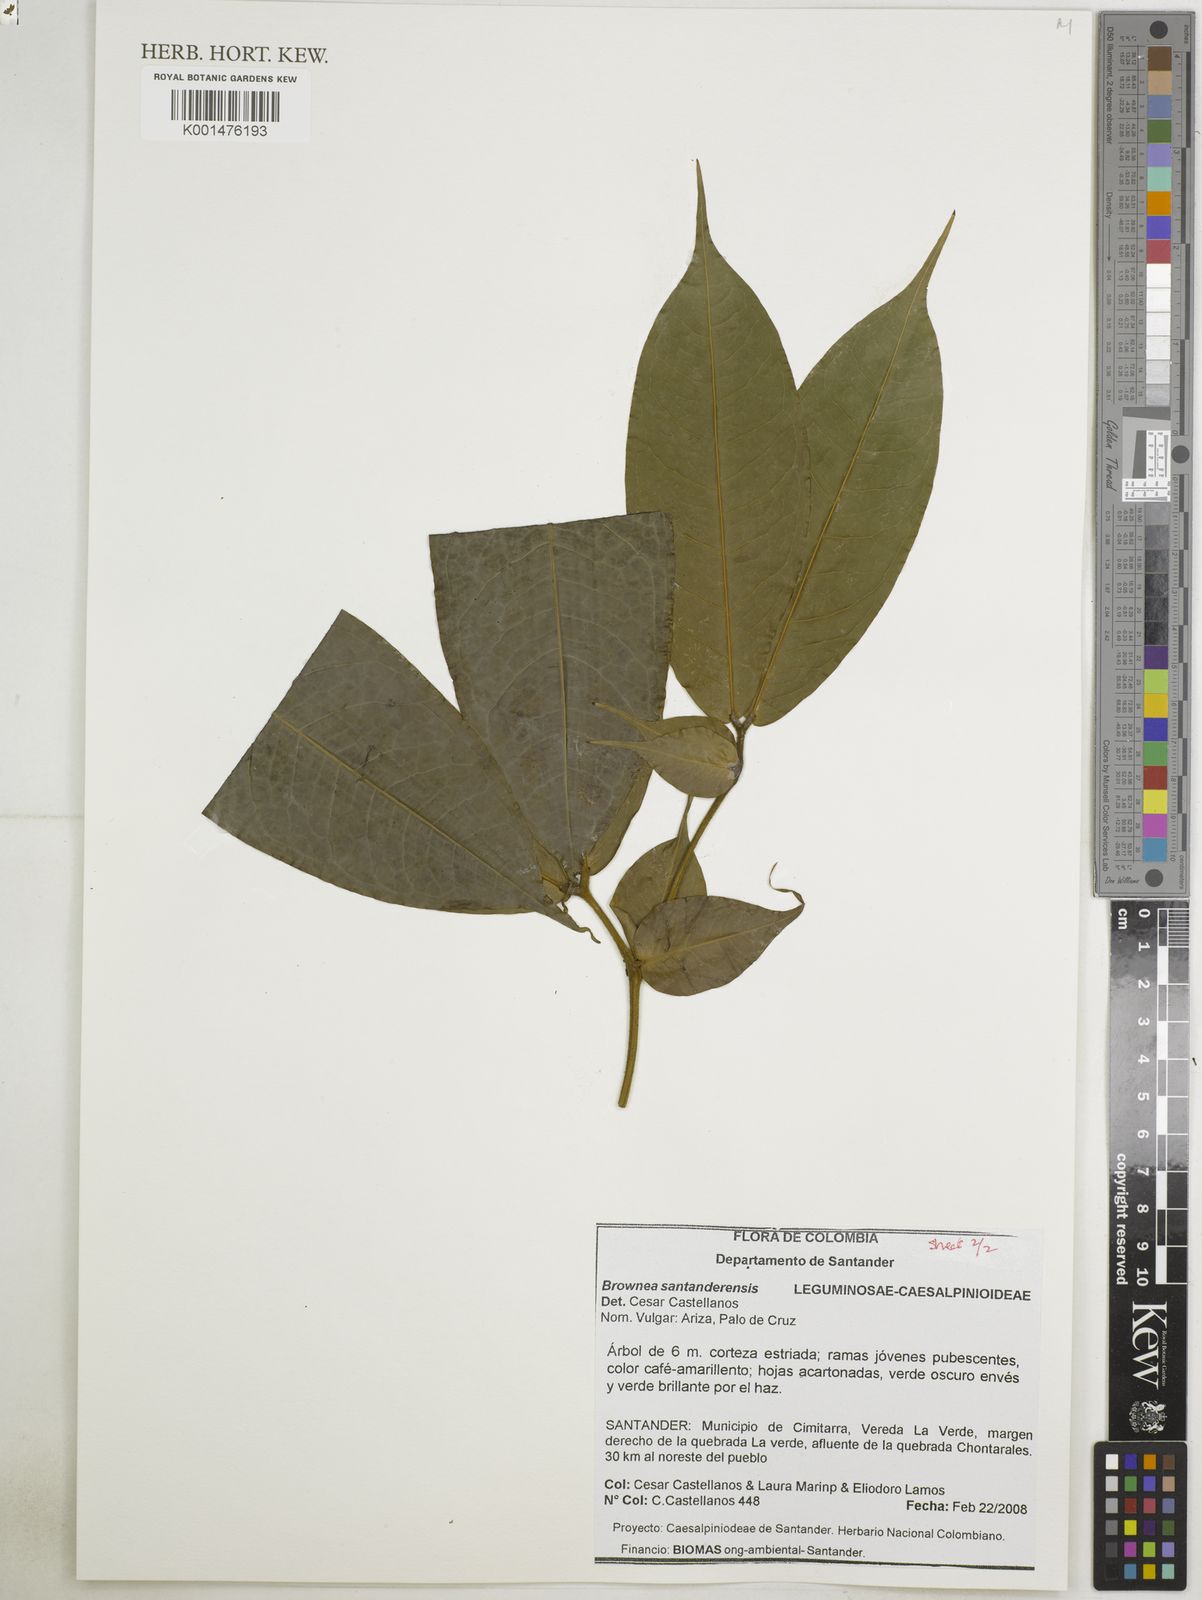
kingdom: Plantae
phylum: Tracheophyta
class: Magnoliopsida
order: Fabales
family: Fabaceae
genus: Brownea
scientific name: Brownea santanderensis
